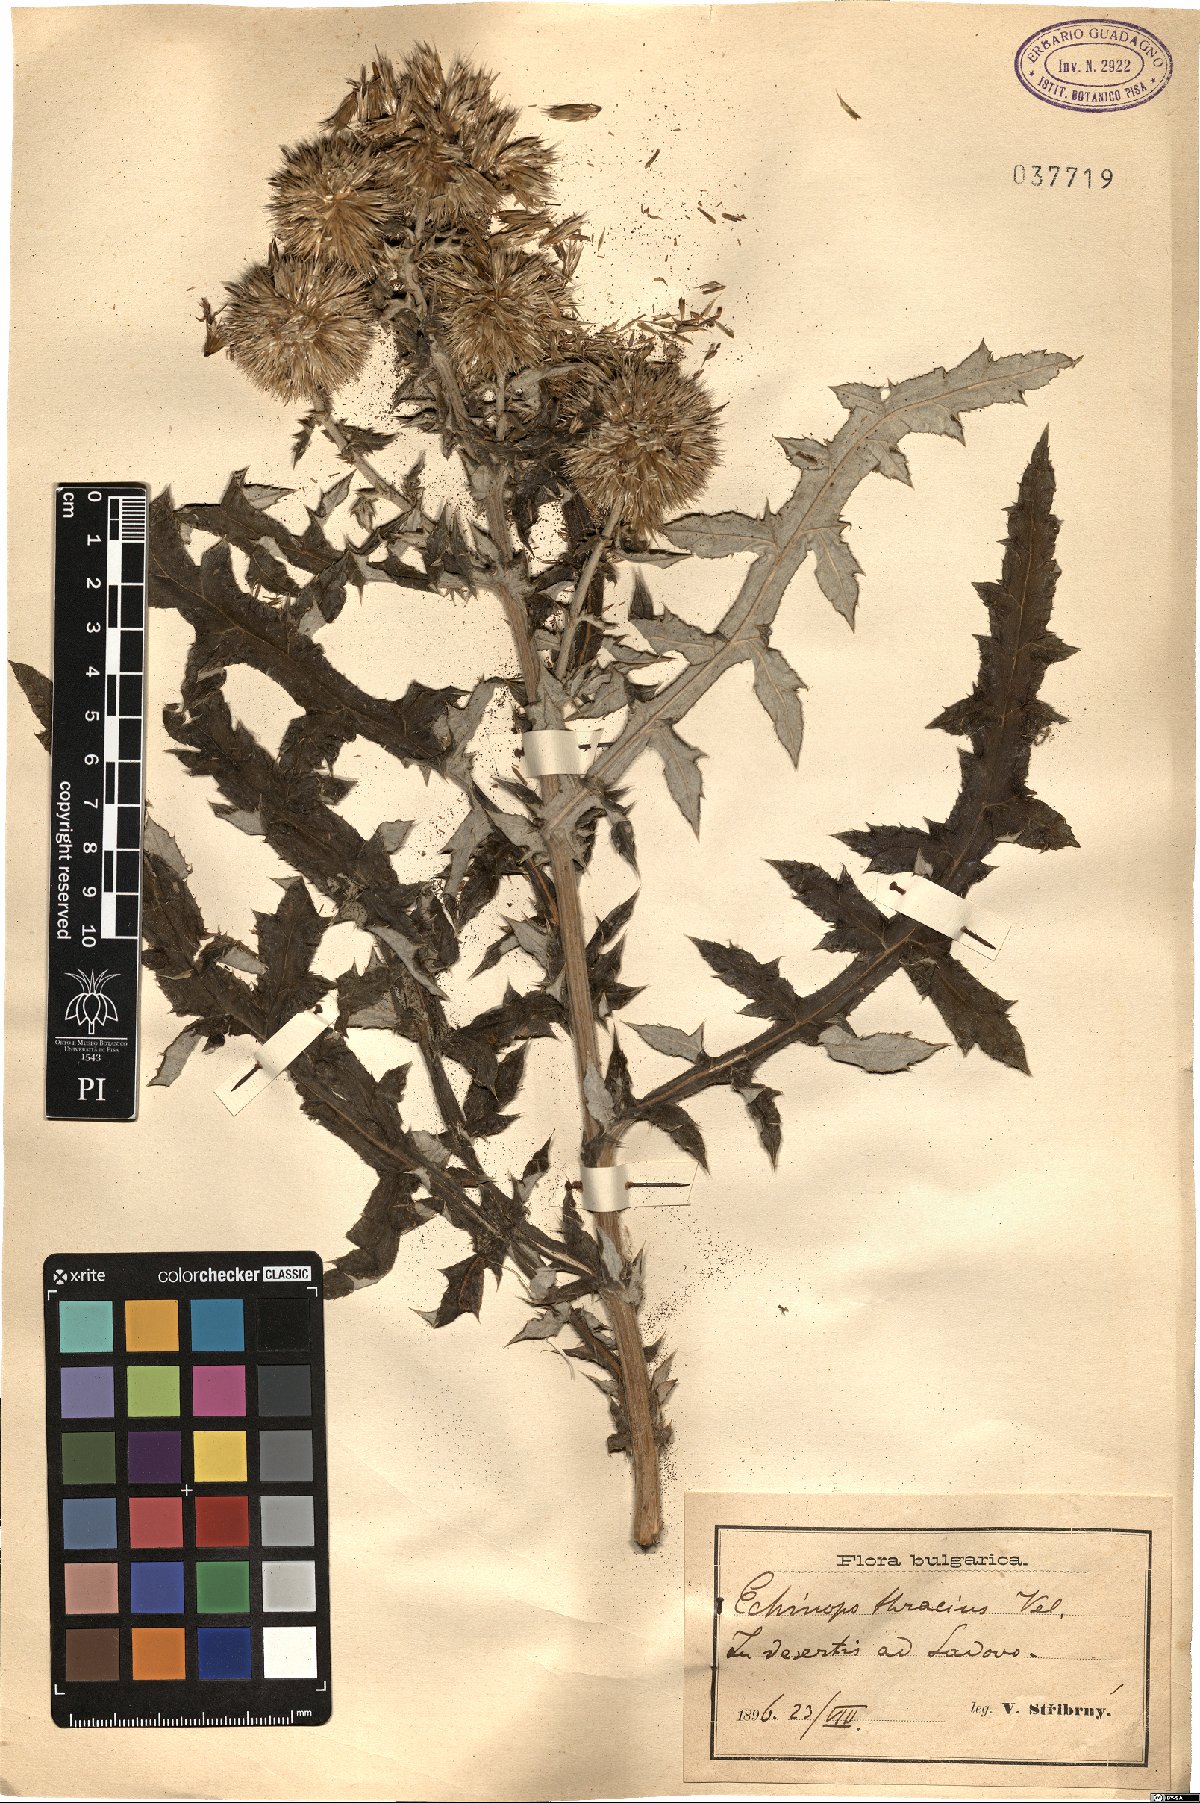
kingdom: Plantae
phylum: Tracheophyta
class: Magnoliopsida
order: Asterales
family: Asteraceae
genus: Echinops
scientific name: Echinops ritro
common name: Globe thistle
